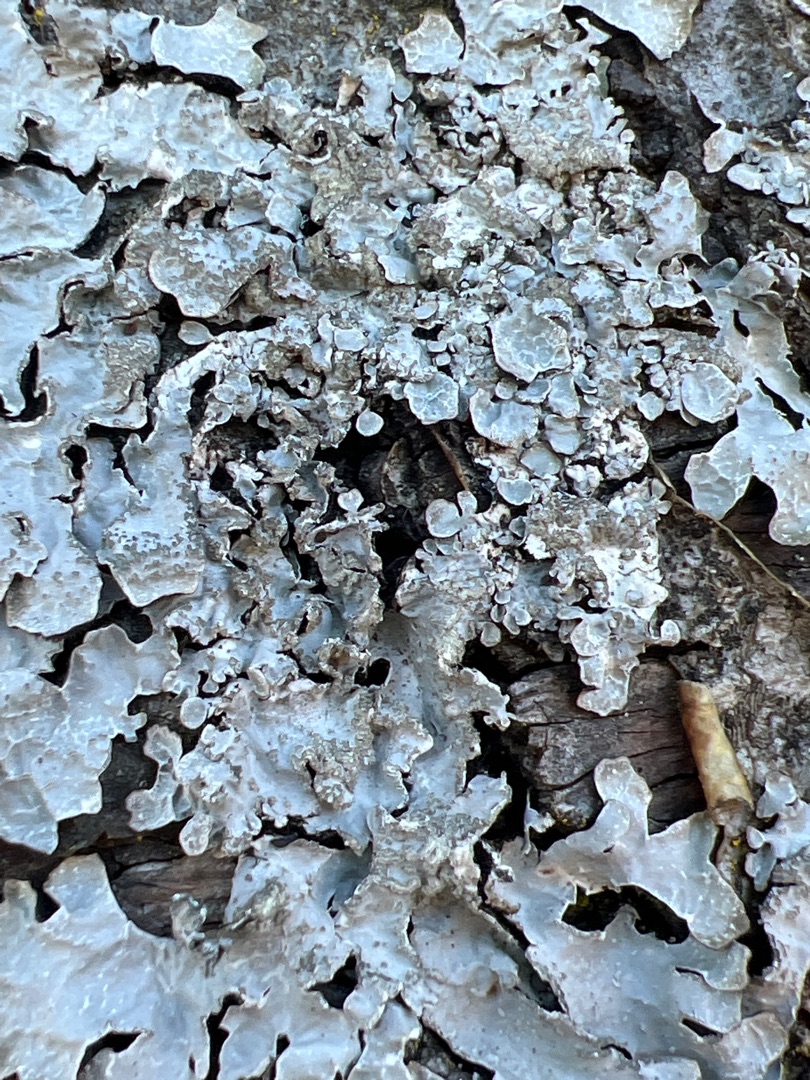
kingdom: Fungi
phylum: Ascomycota
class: Lecanoromycetes
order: Lecanorales
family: Parmeliaceae
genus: Parmelia
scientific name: Parmelia sulcata
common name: Rynket skållav
